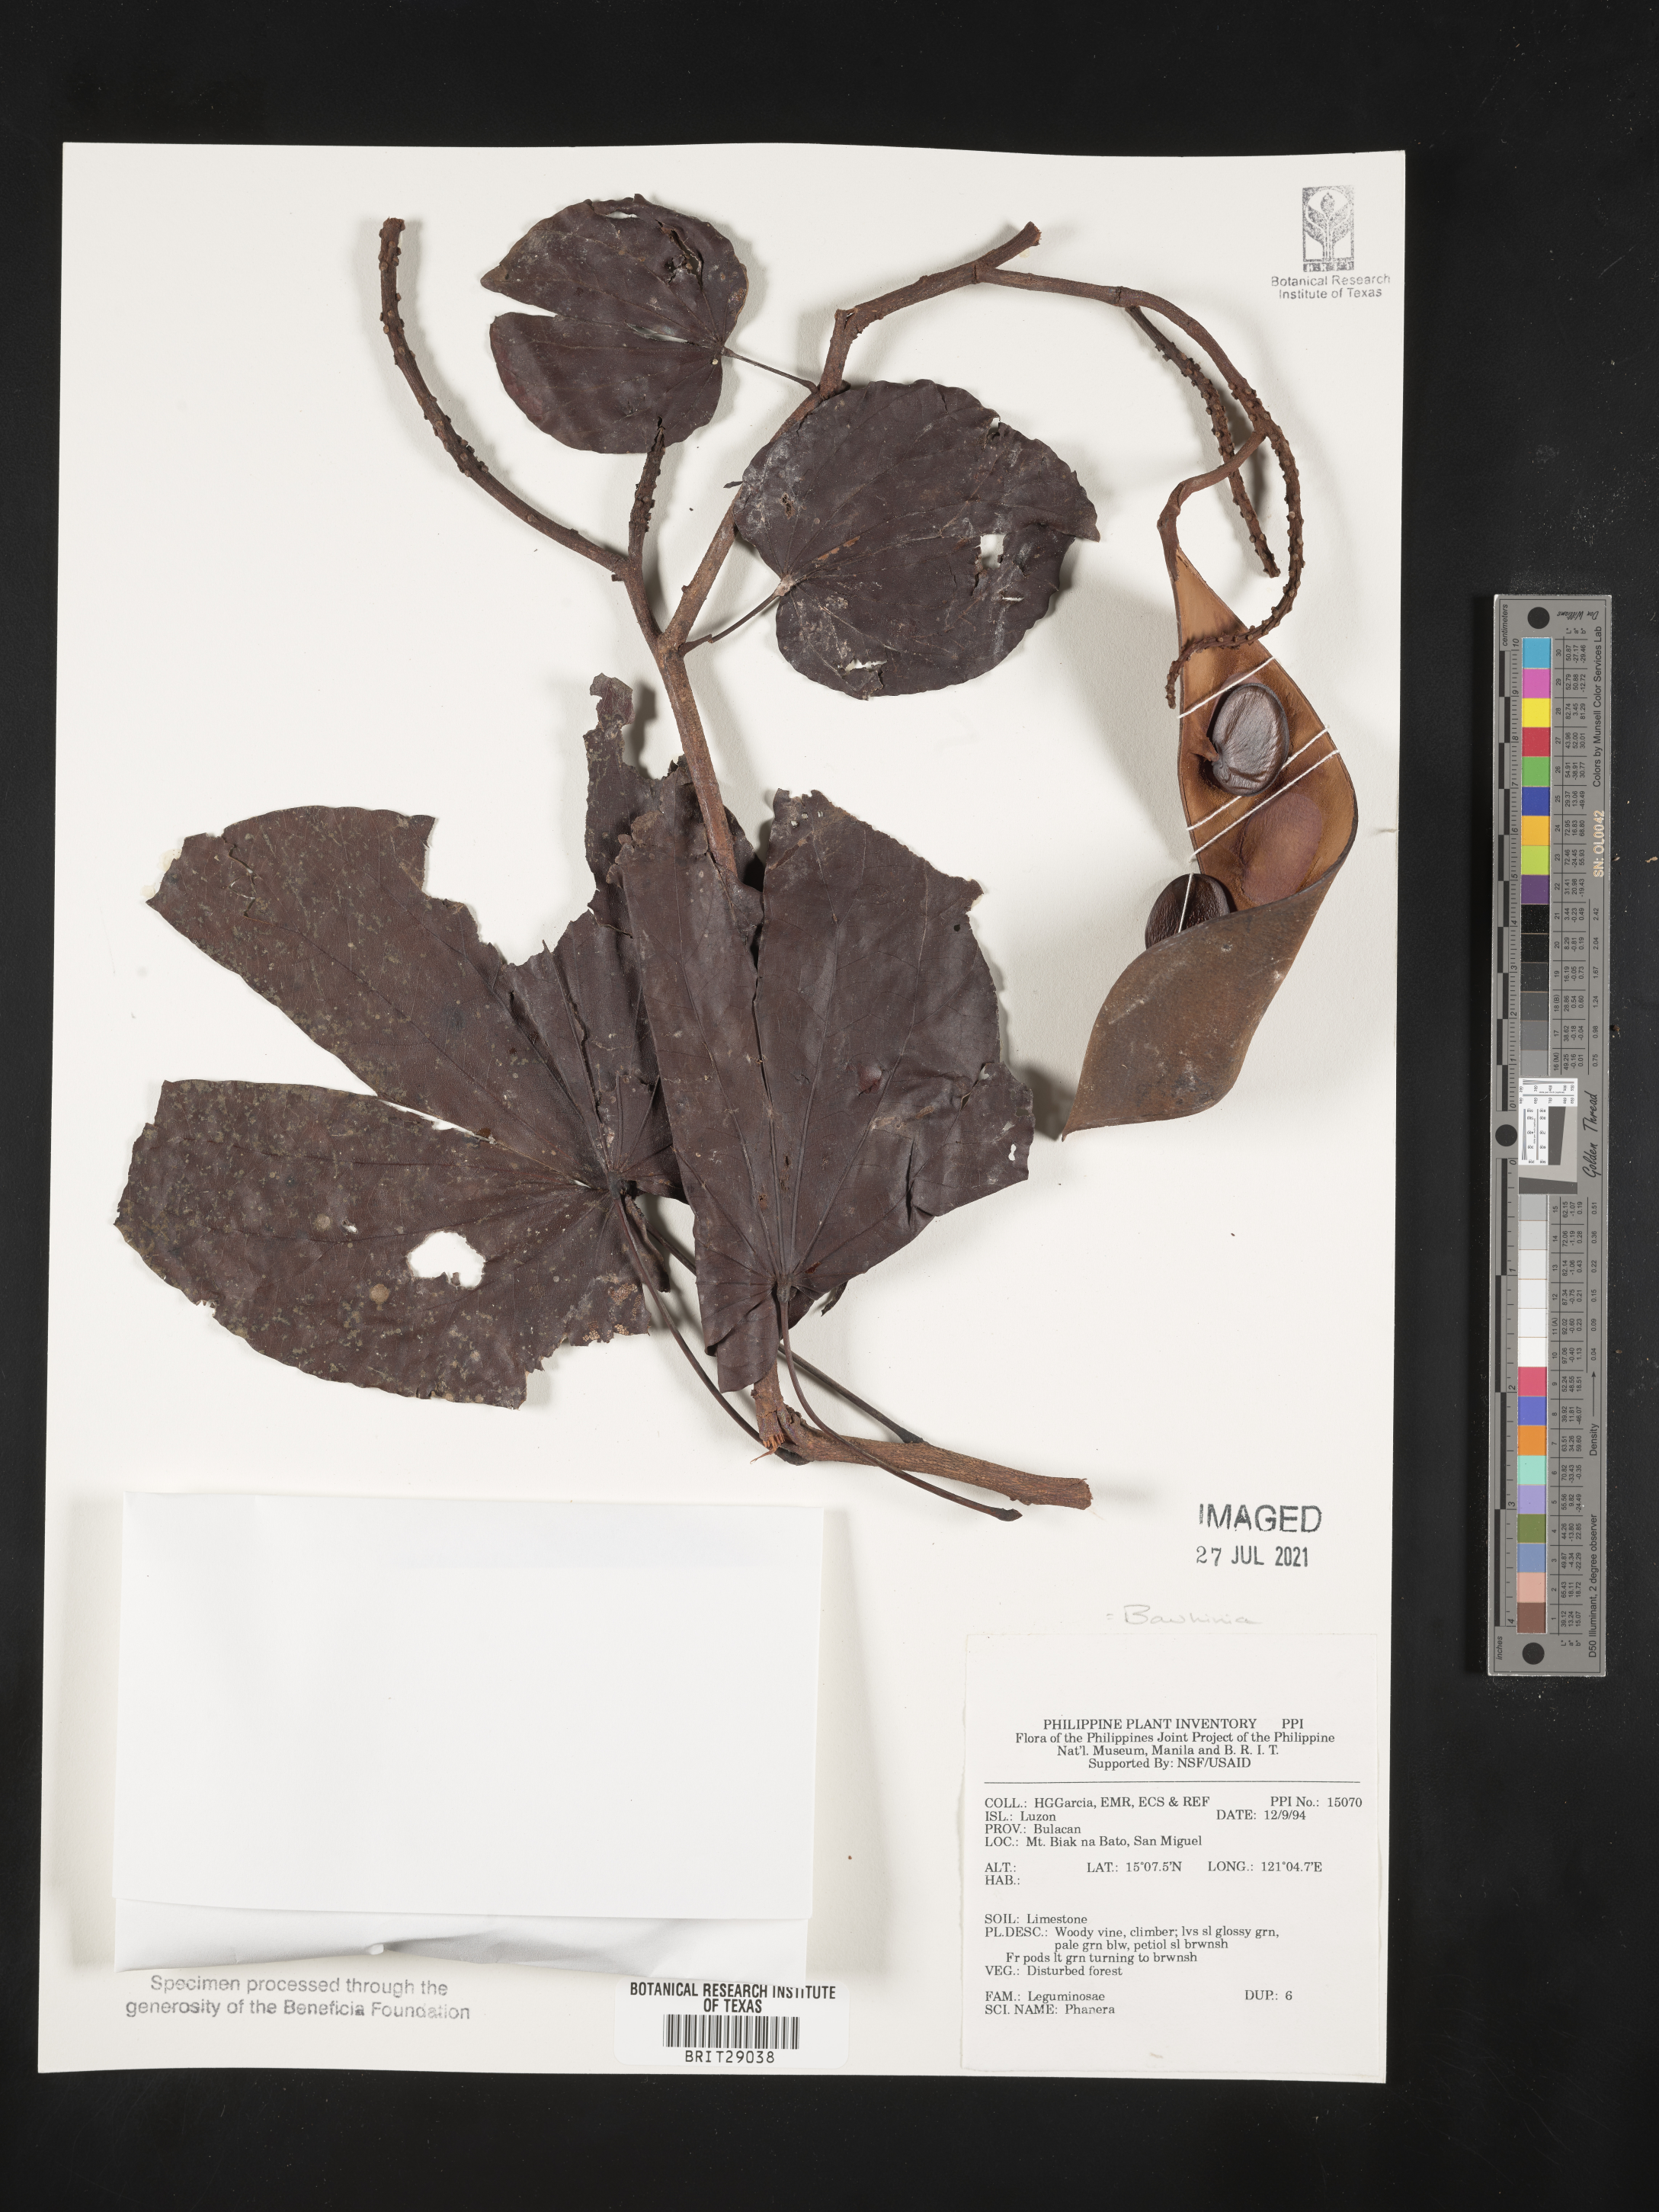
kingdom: Plantae
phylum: Tracheophyta
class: Magnoliopsida
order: Fabales
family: Fabaceae
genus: Bauhinia
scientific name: Bauhinia
